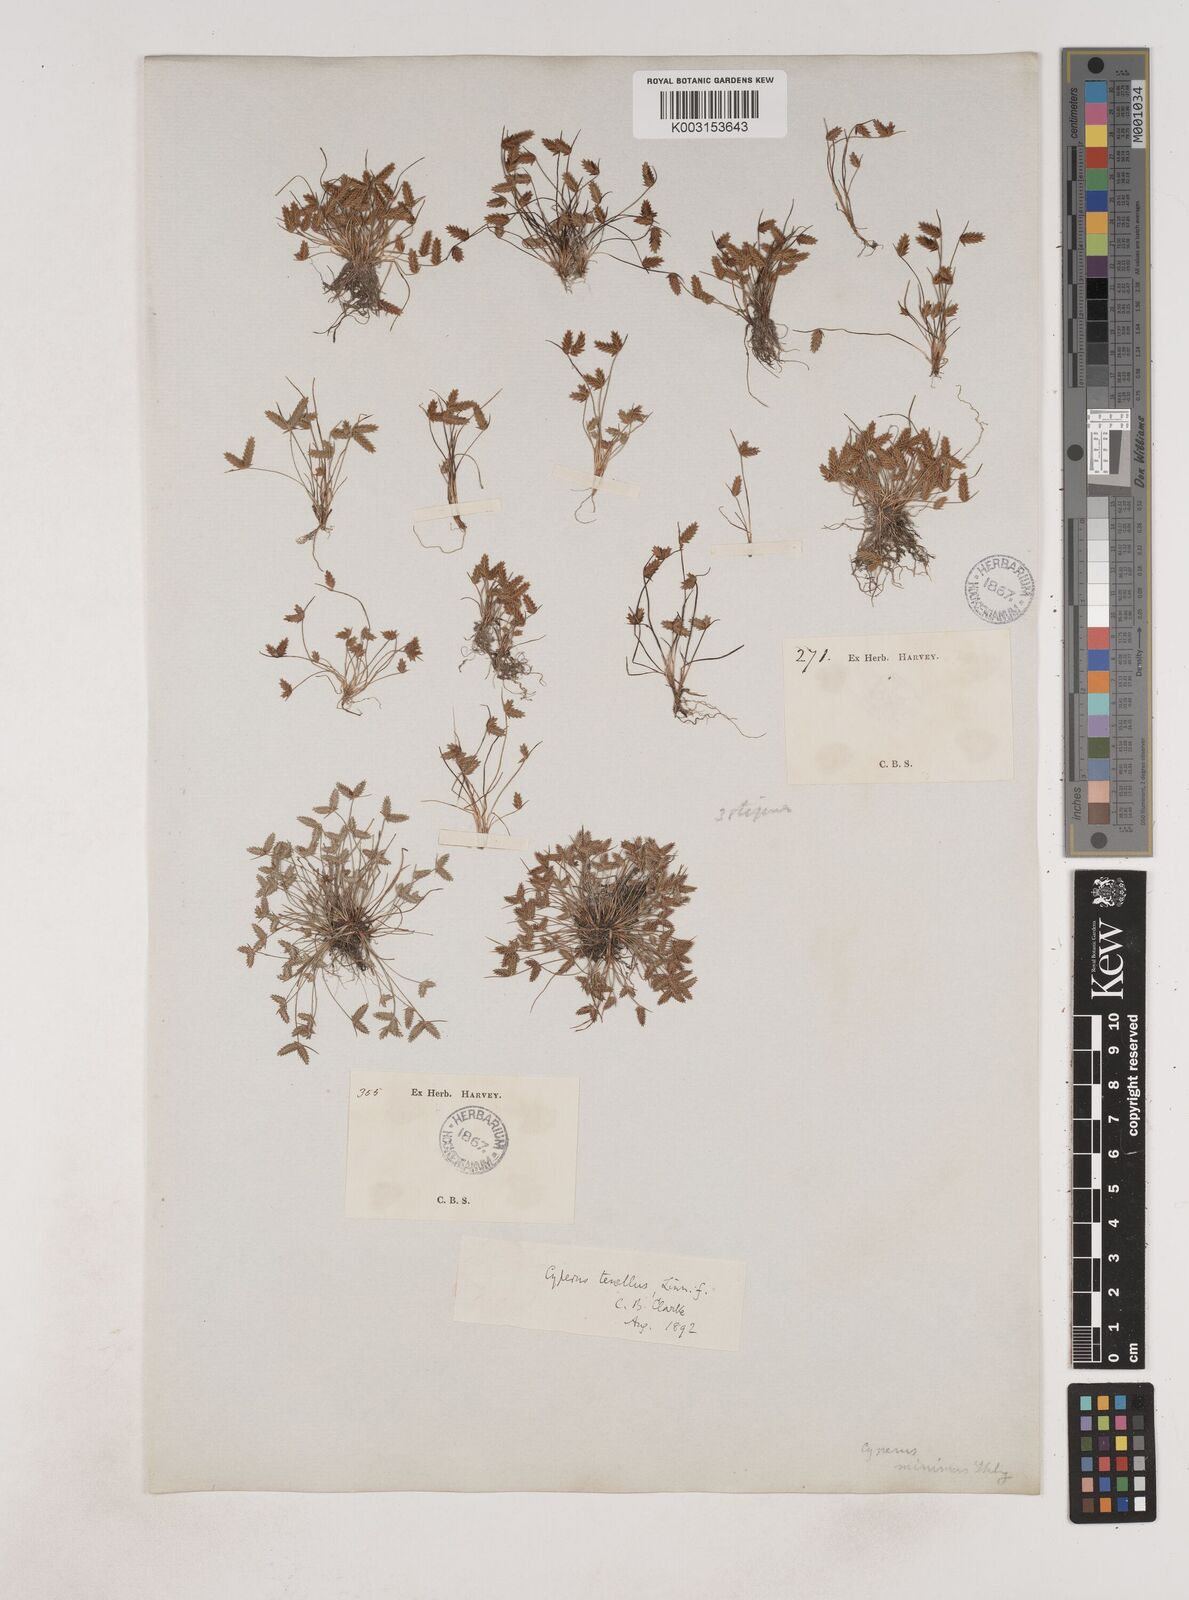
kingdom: Plantae
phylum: Tracheophyta
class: Liliopsida
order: Poales
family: Cyperaceae
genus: Isolepis
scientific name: Isolepis levynsiana
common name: Sedge
